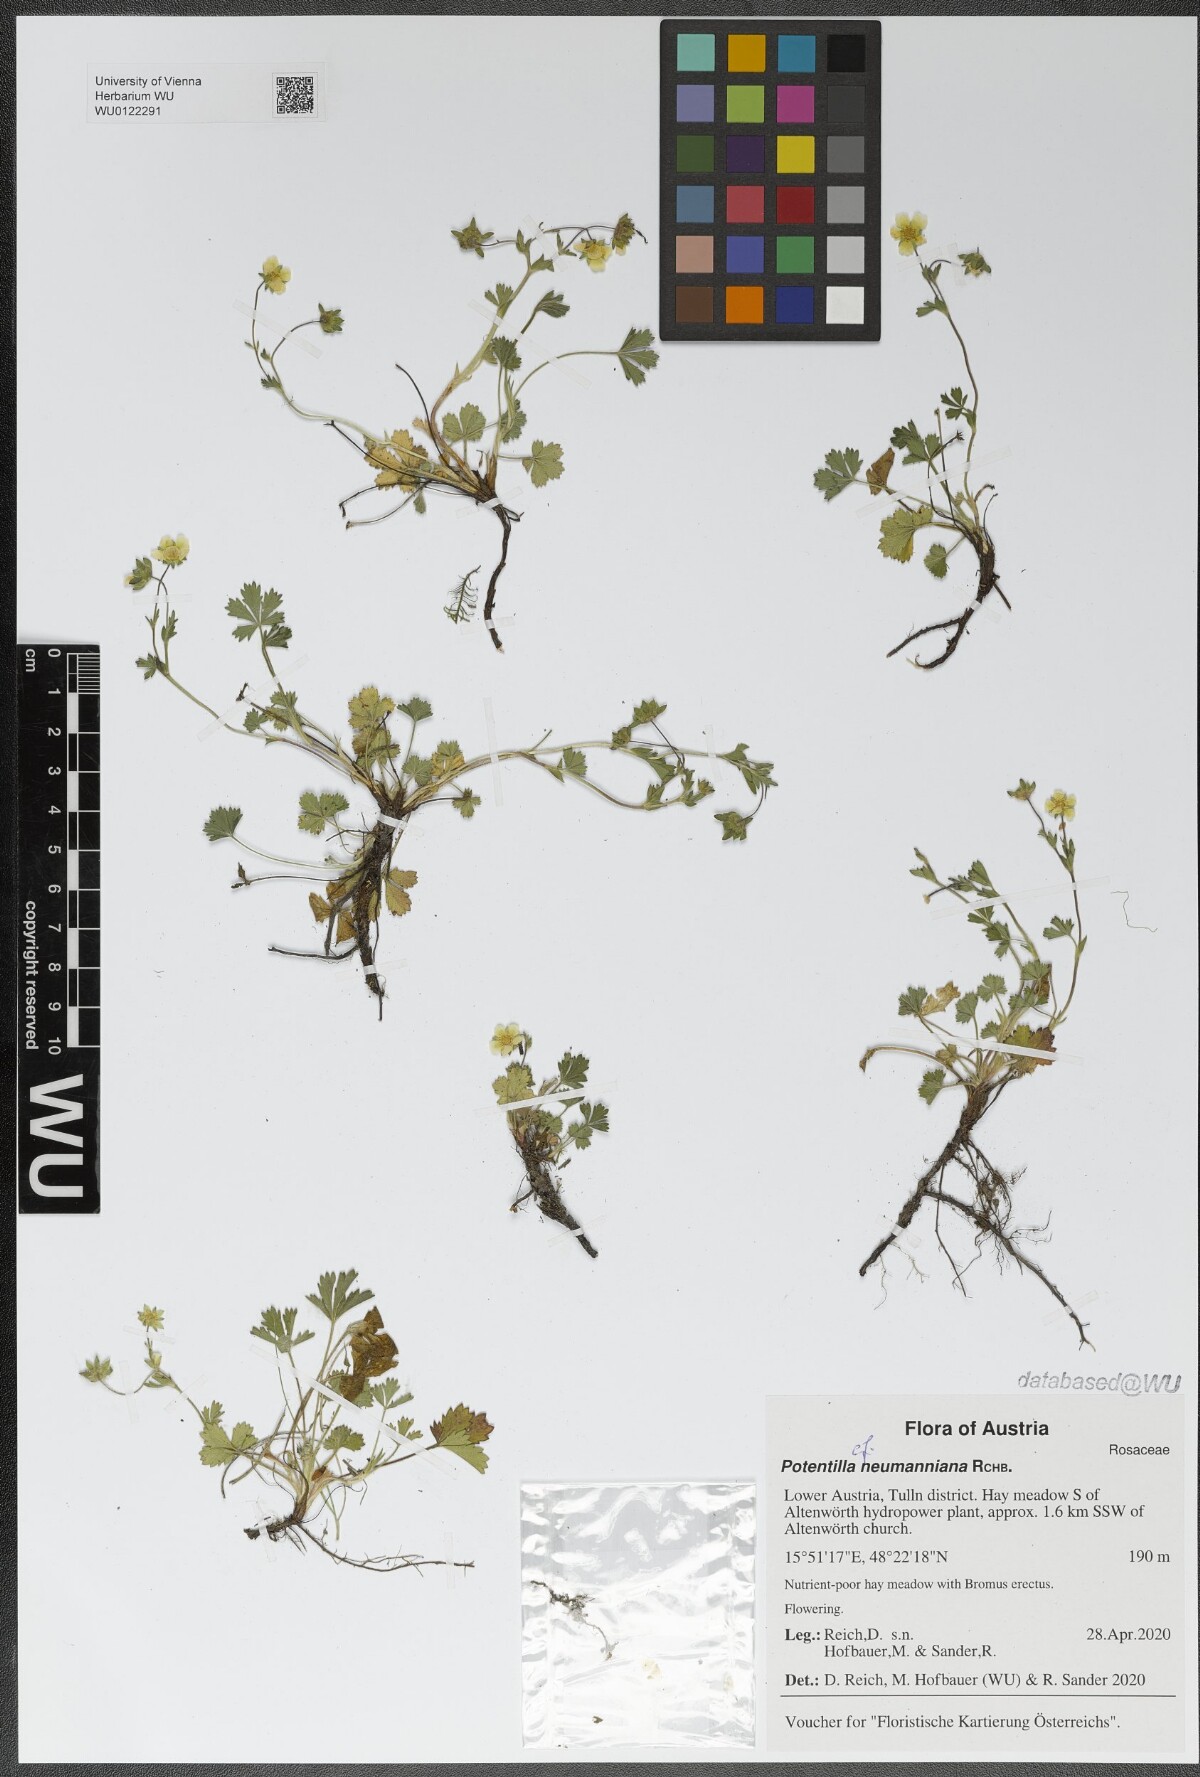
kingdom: Plantae
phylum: Tracheophyta
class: Magnoliopsida
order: Rosales
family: Rosaceae
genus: Potentilla
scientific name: Potentilla verna
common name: Spring cinquefoil
